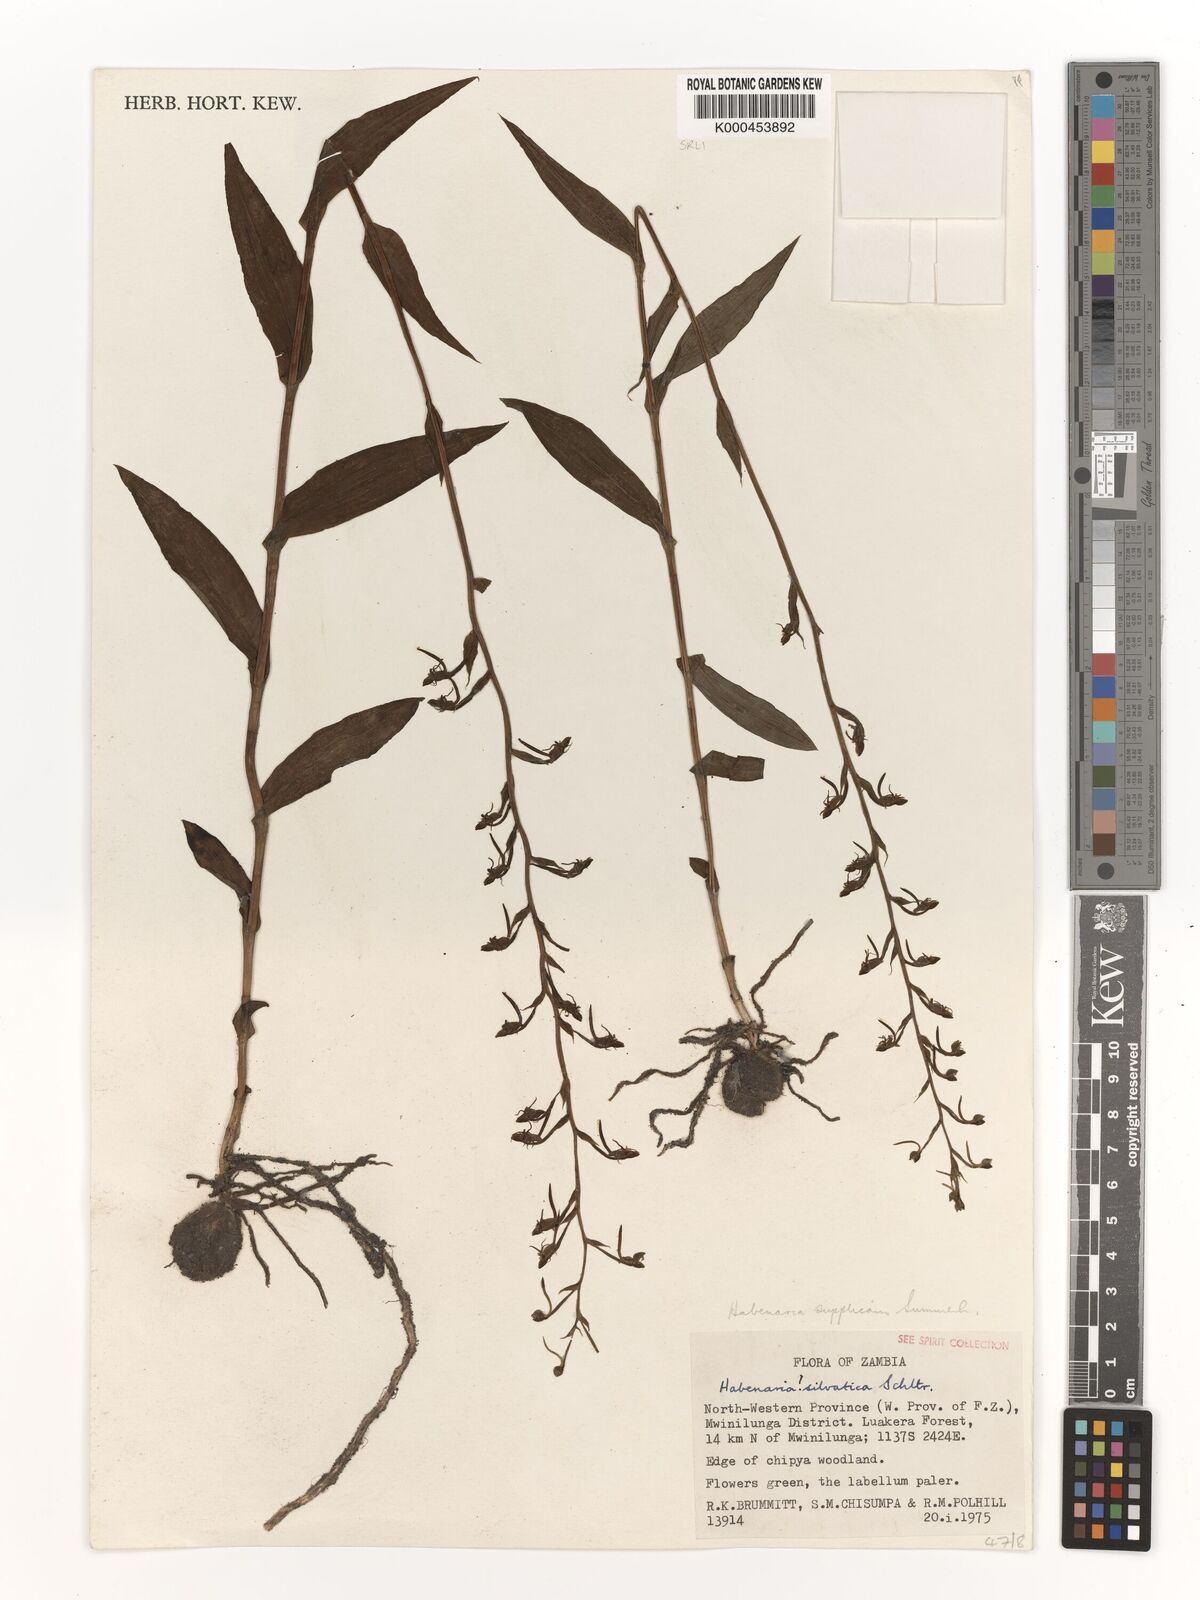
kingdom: Plantae
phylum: Tracheophyta
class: Liliopsida
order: Asparagales
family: Orchidaceae
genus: Habenaria
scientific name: Habenaria supplicans
